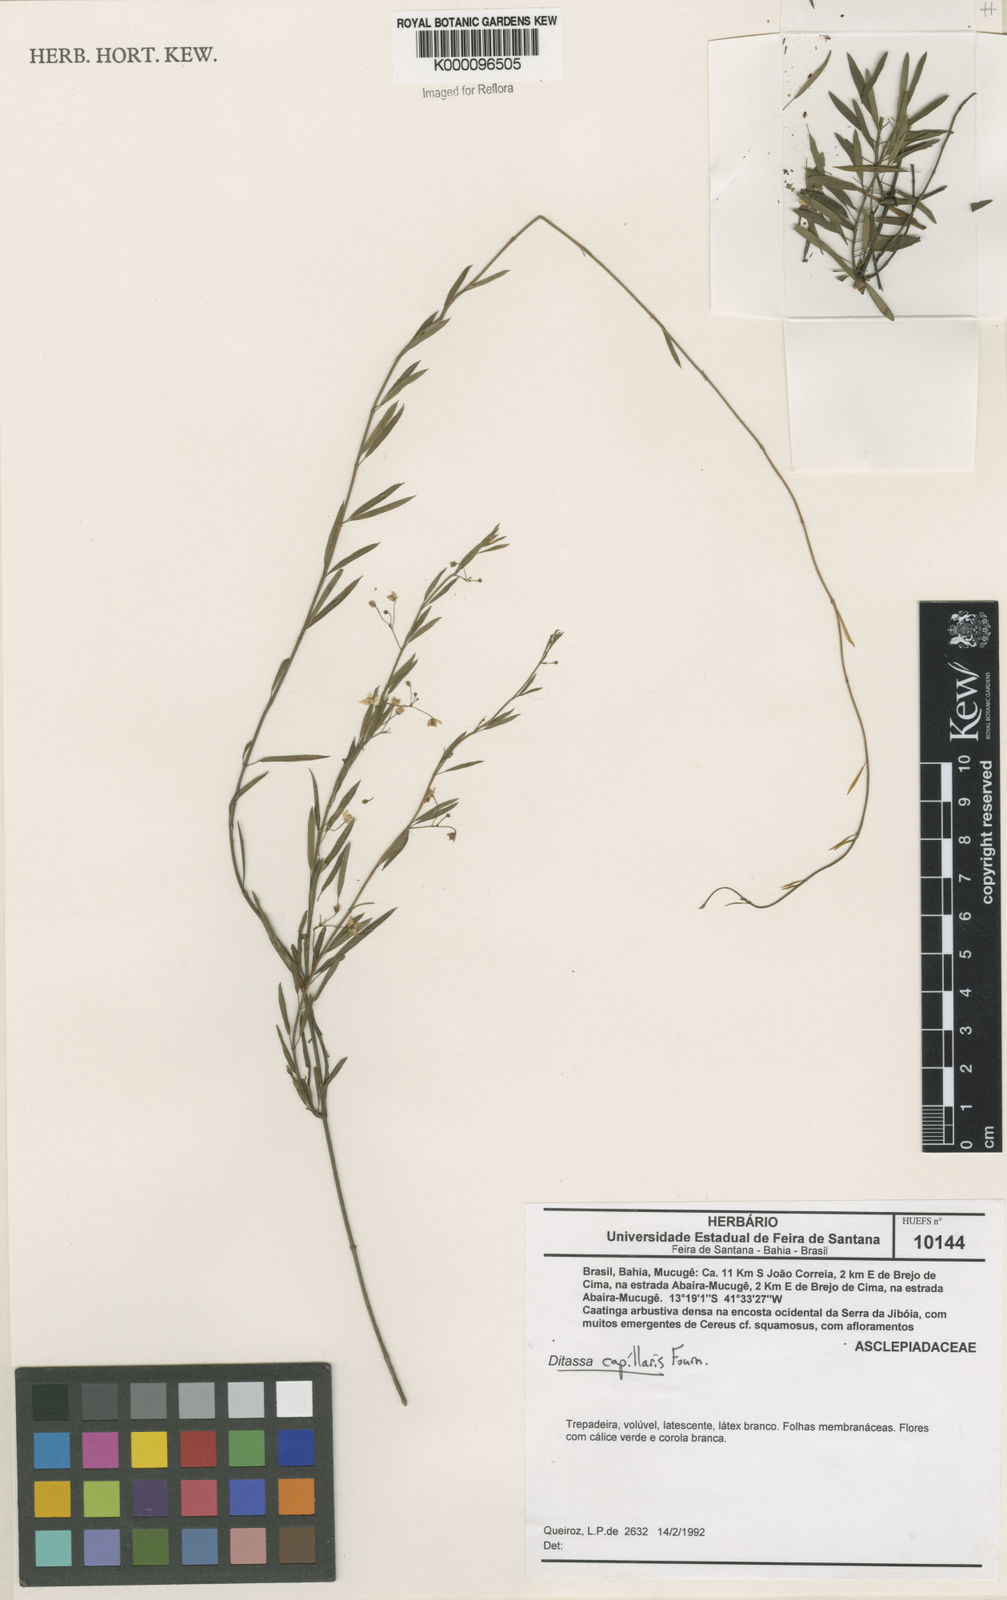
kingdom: Plantae
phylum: Tracheophyta
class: Magnoliopsida
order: Gentianales
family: Apocynaceae
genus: Ditassa
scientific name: Ditassa capillaris
